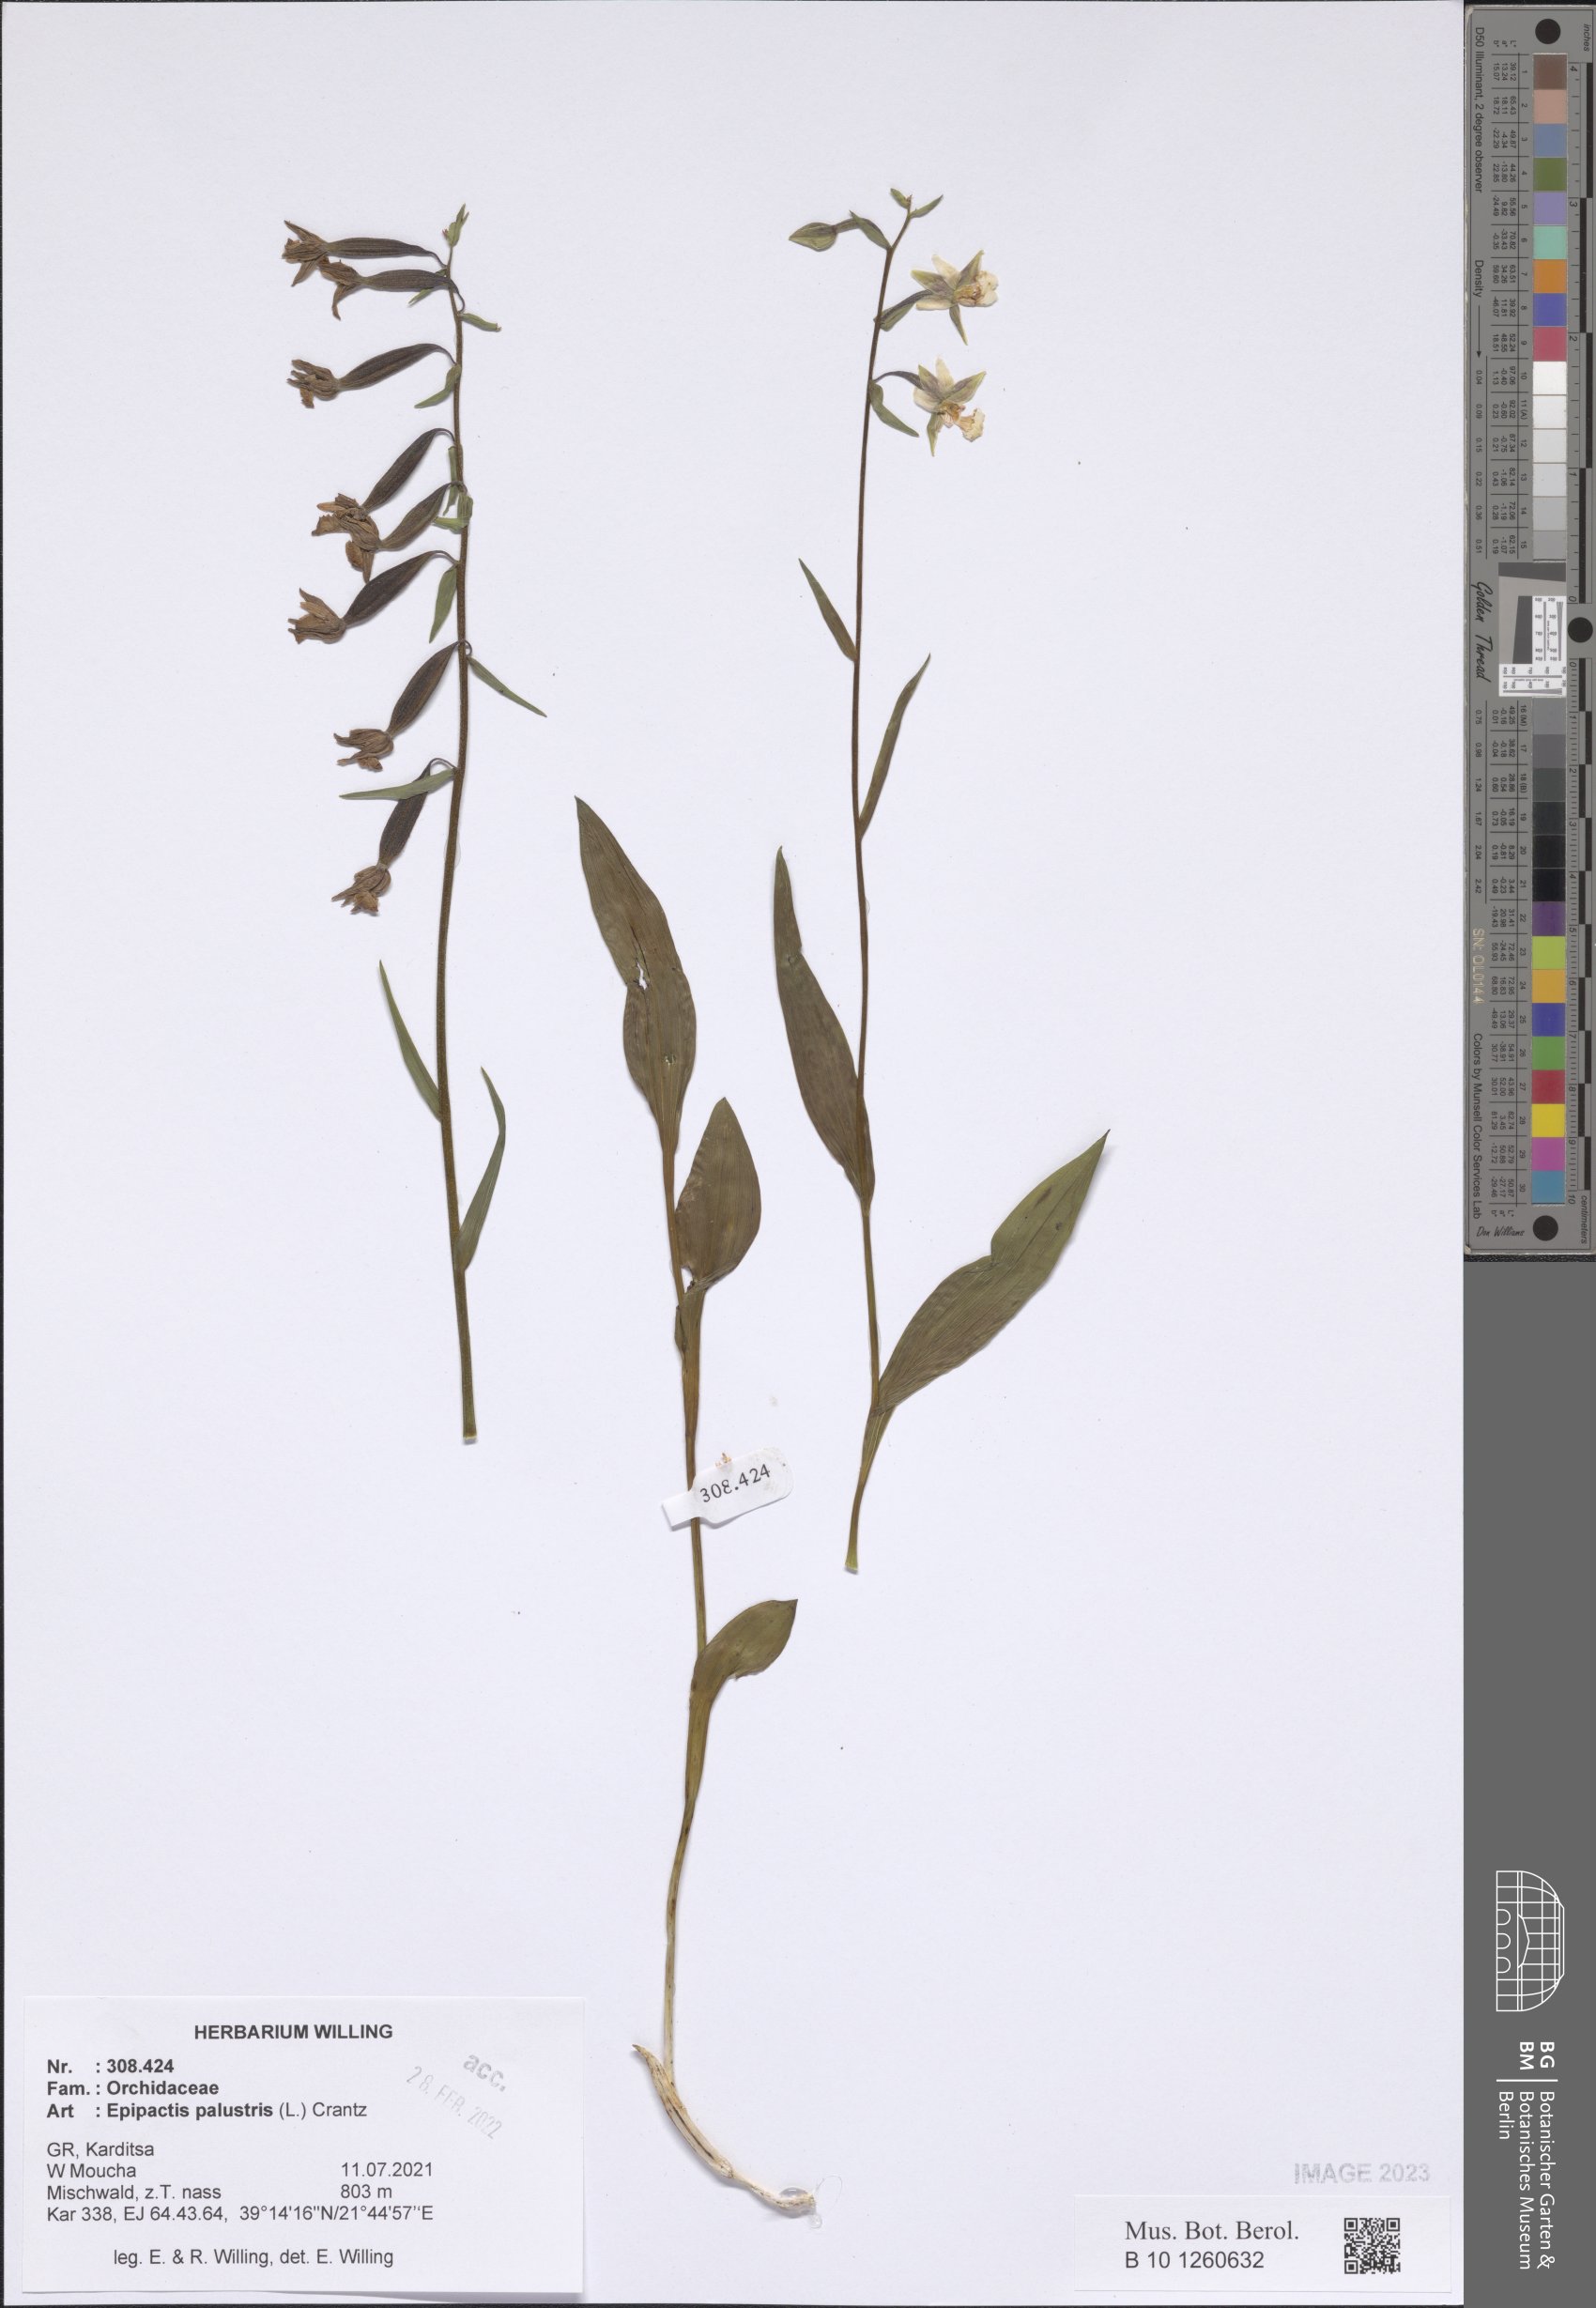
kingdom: Plantae
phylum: Tracheophyta
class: Liliopsida
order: Asparagales
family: Orchidaceae
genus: Epipactis
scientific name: Epipactis palustris
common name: Marsh helleborine
